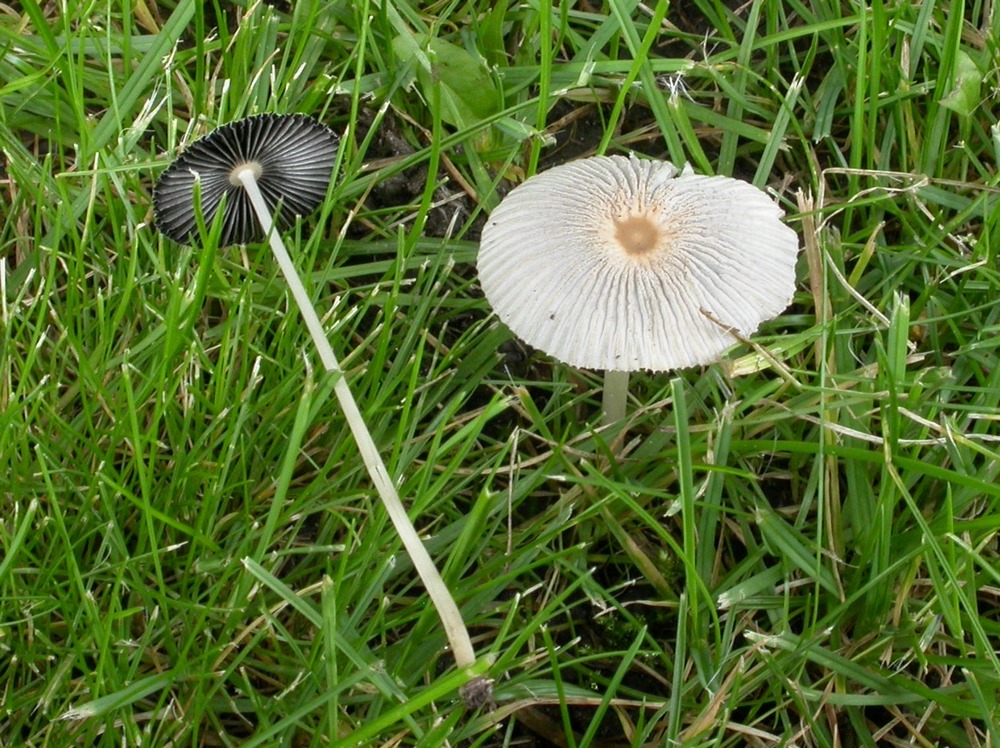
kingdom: Fungi
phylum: Basidiomycota
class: Agaricomycetes
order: Agaricales
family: Psathyrellaceae
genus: Parasola
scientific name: Parasola plicatilis
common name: plæne-hjulhat
